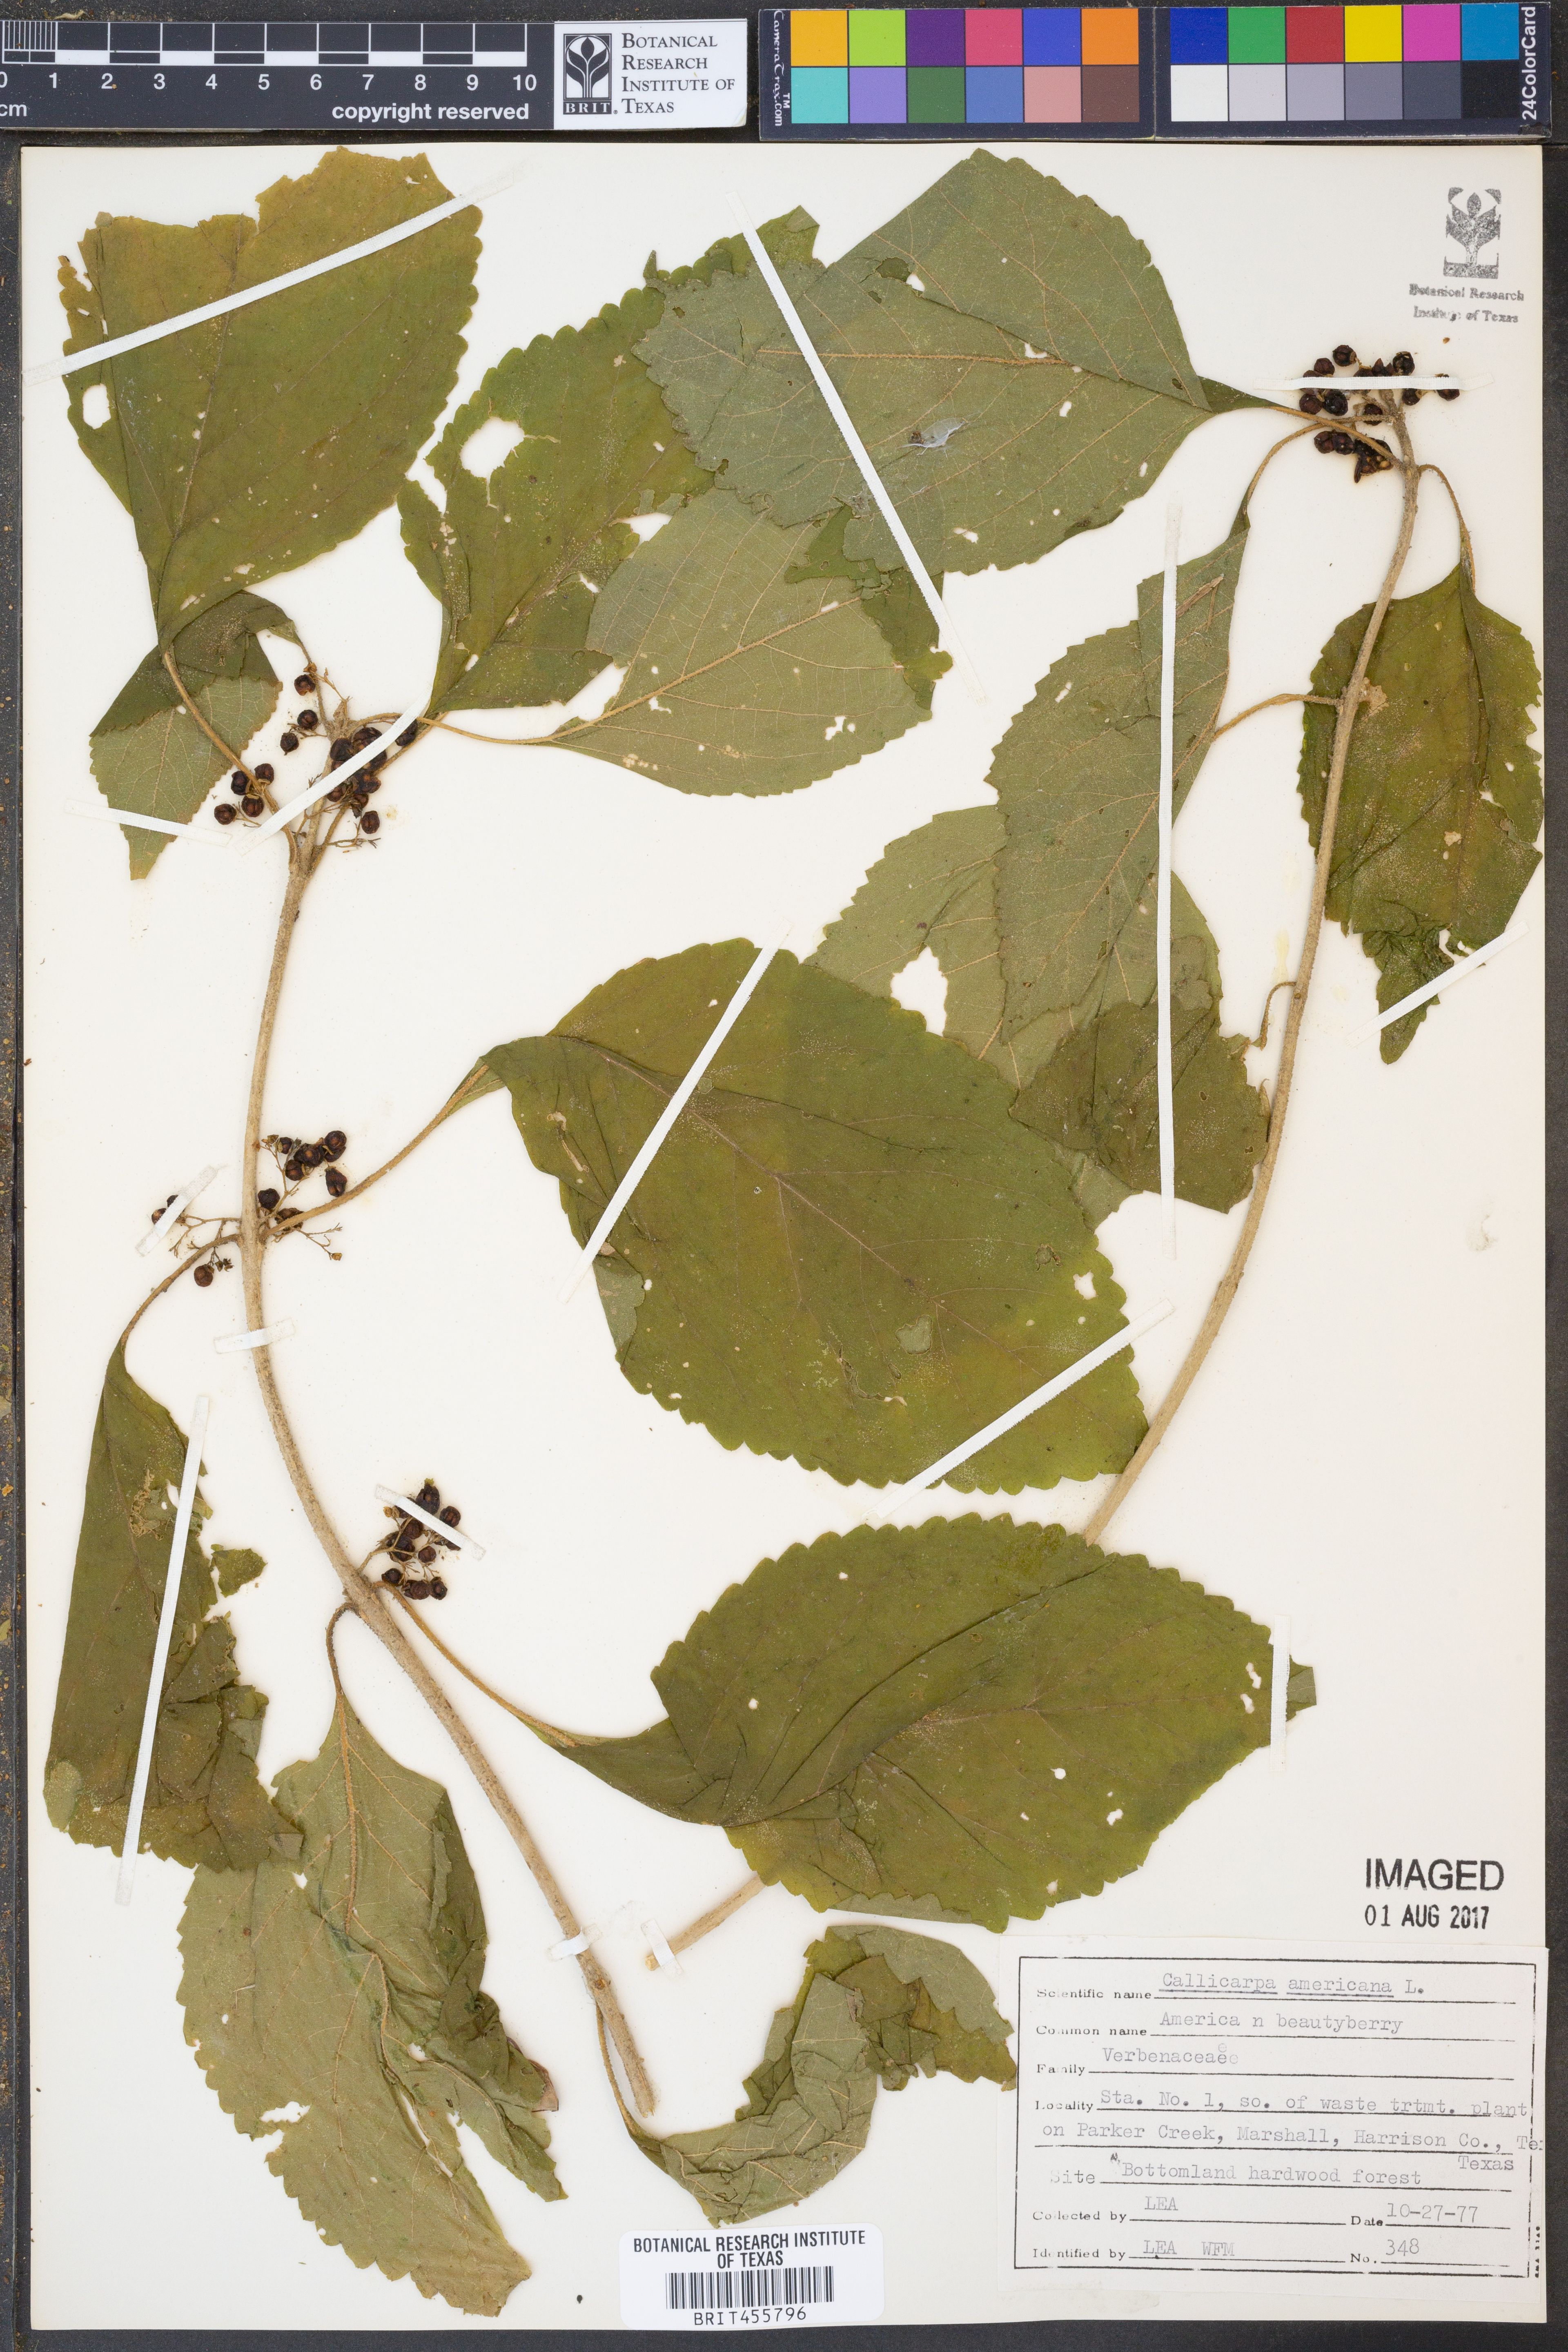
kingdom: Plantae
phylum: Tracheophyta
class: Magnoliopsida
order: Lamiales
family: Lamiaceae
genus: Callicarpa
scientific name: Callicarpa americana
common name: American beautyberry
